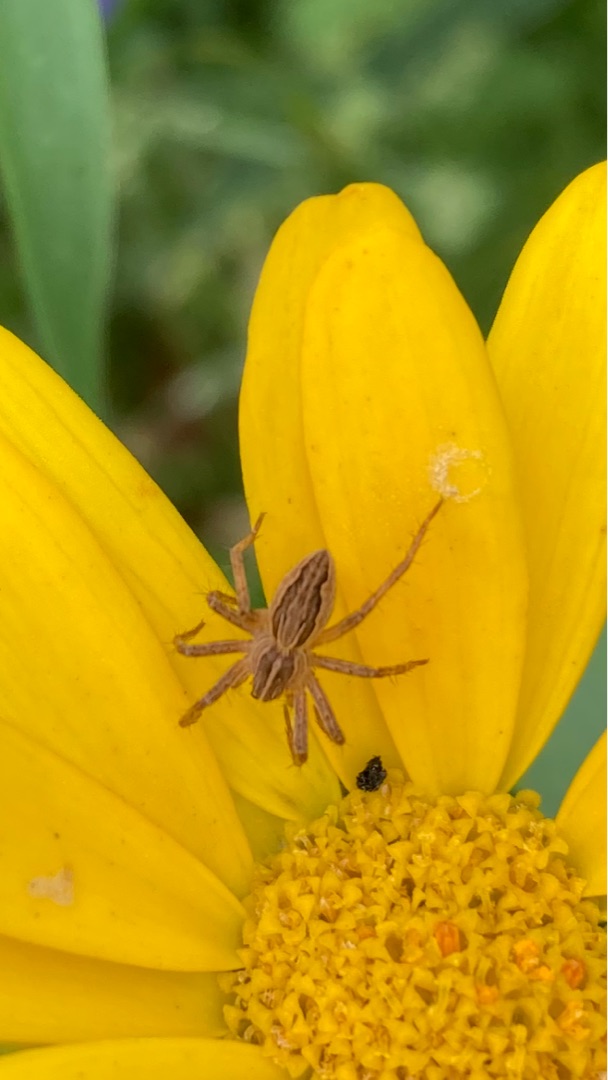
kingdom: Animalia
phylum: Arthropoda
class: Arachnida
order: Araneae
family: Pisauridae
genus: Pisaura
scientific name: Pisaura mirabilis
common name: Almindelig rovedderkop
